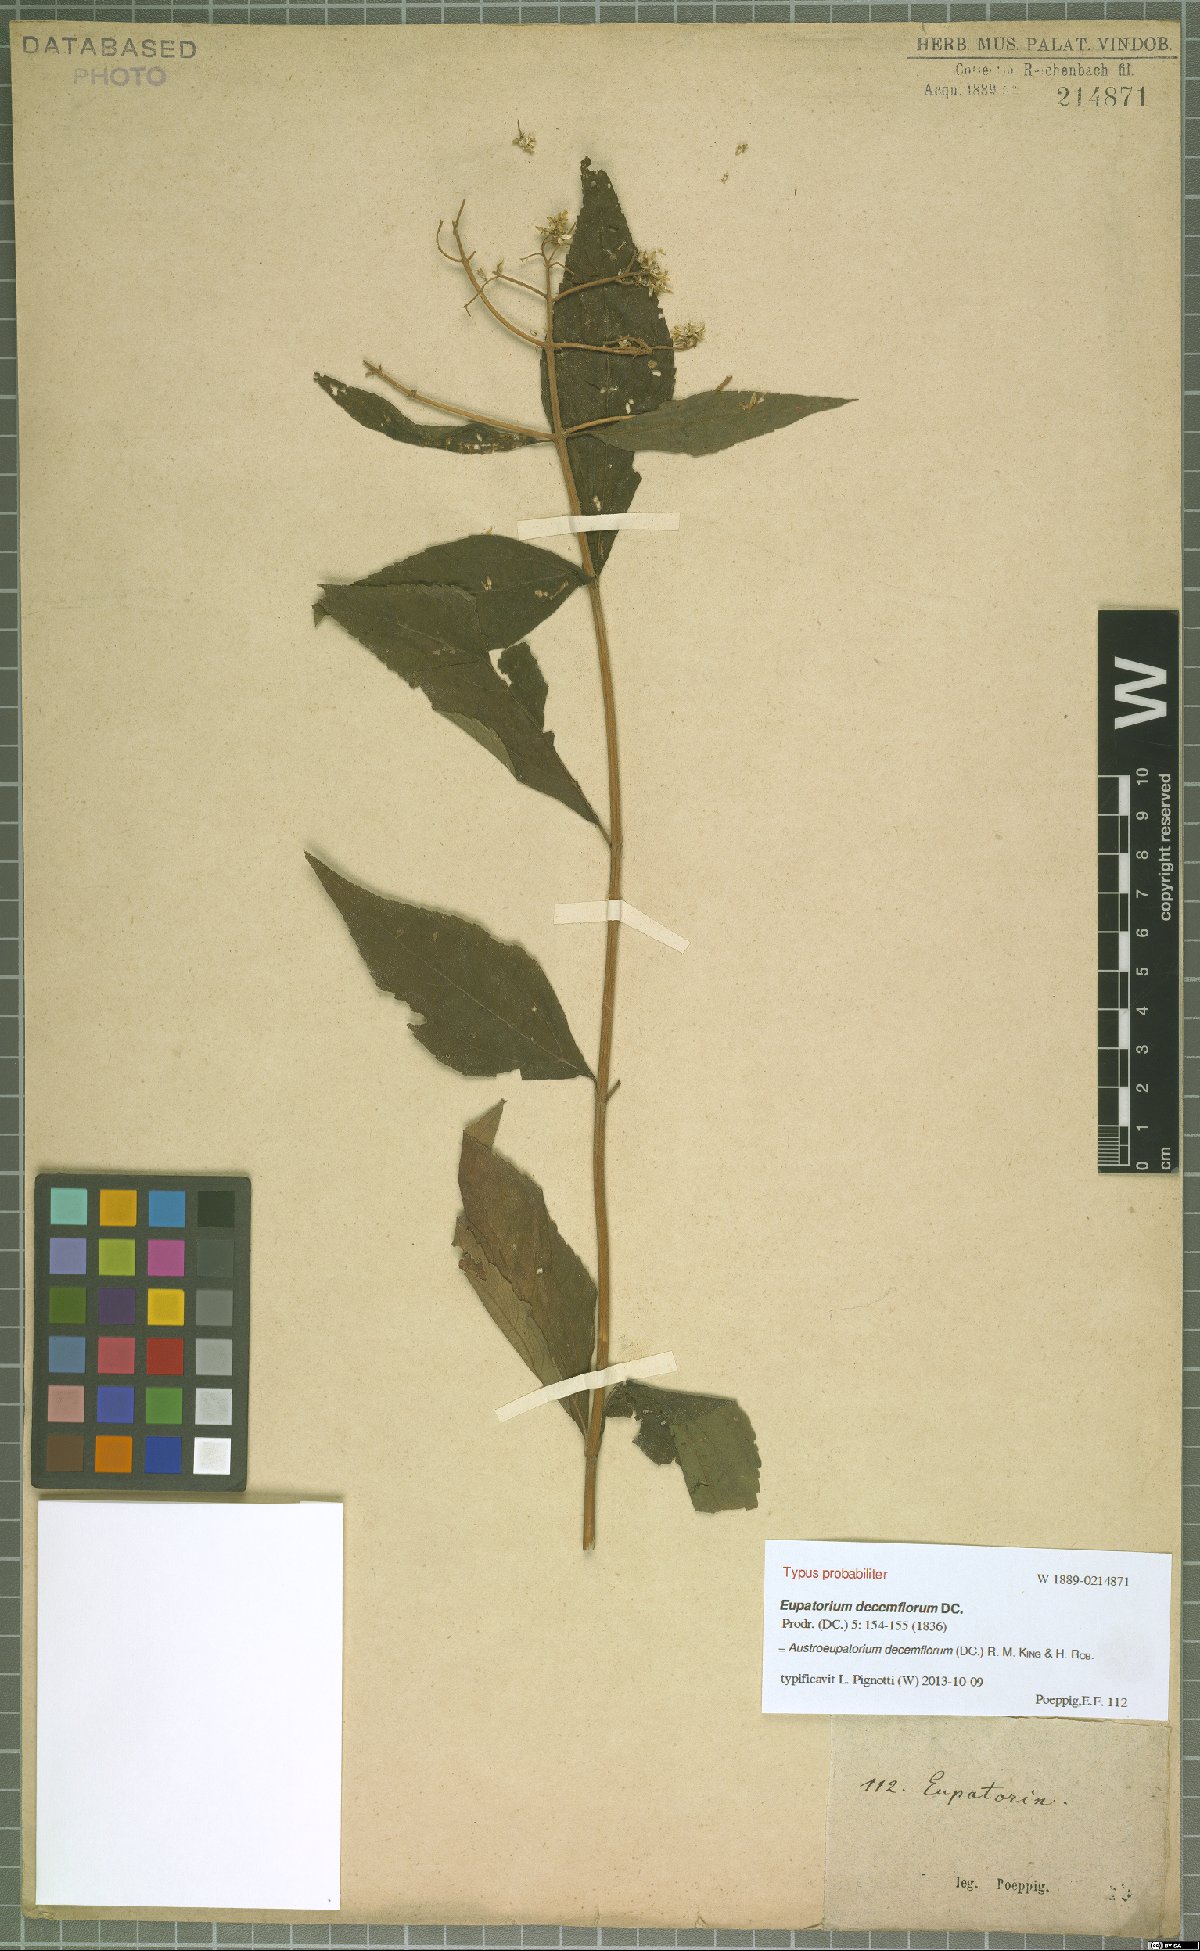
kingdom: Plantae
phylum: Tracheophyta
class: Magnoliopsida
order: Asterales
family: Asteraceae
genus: Austroeupatorium
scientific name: Austroeupatorium decemflorum
